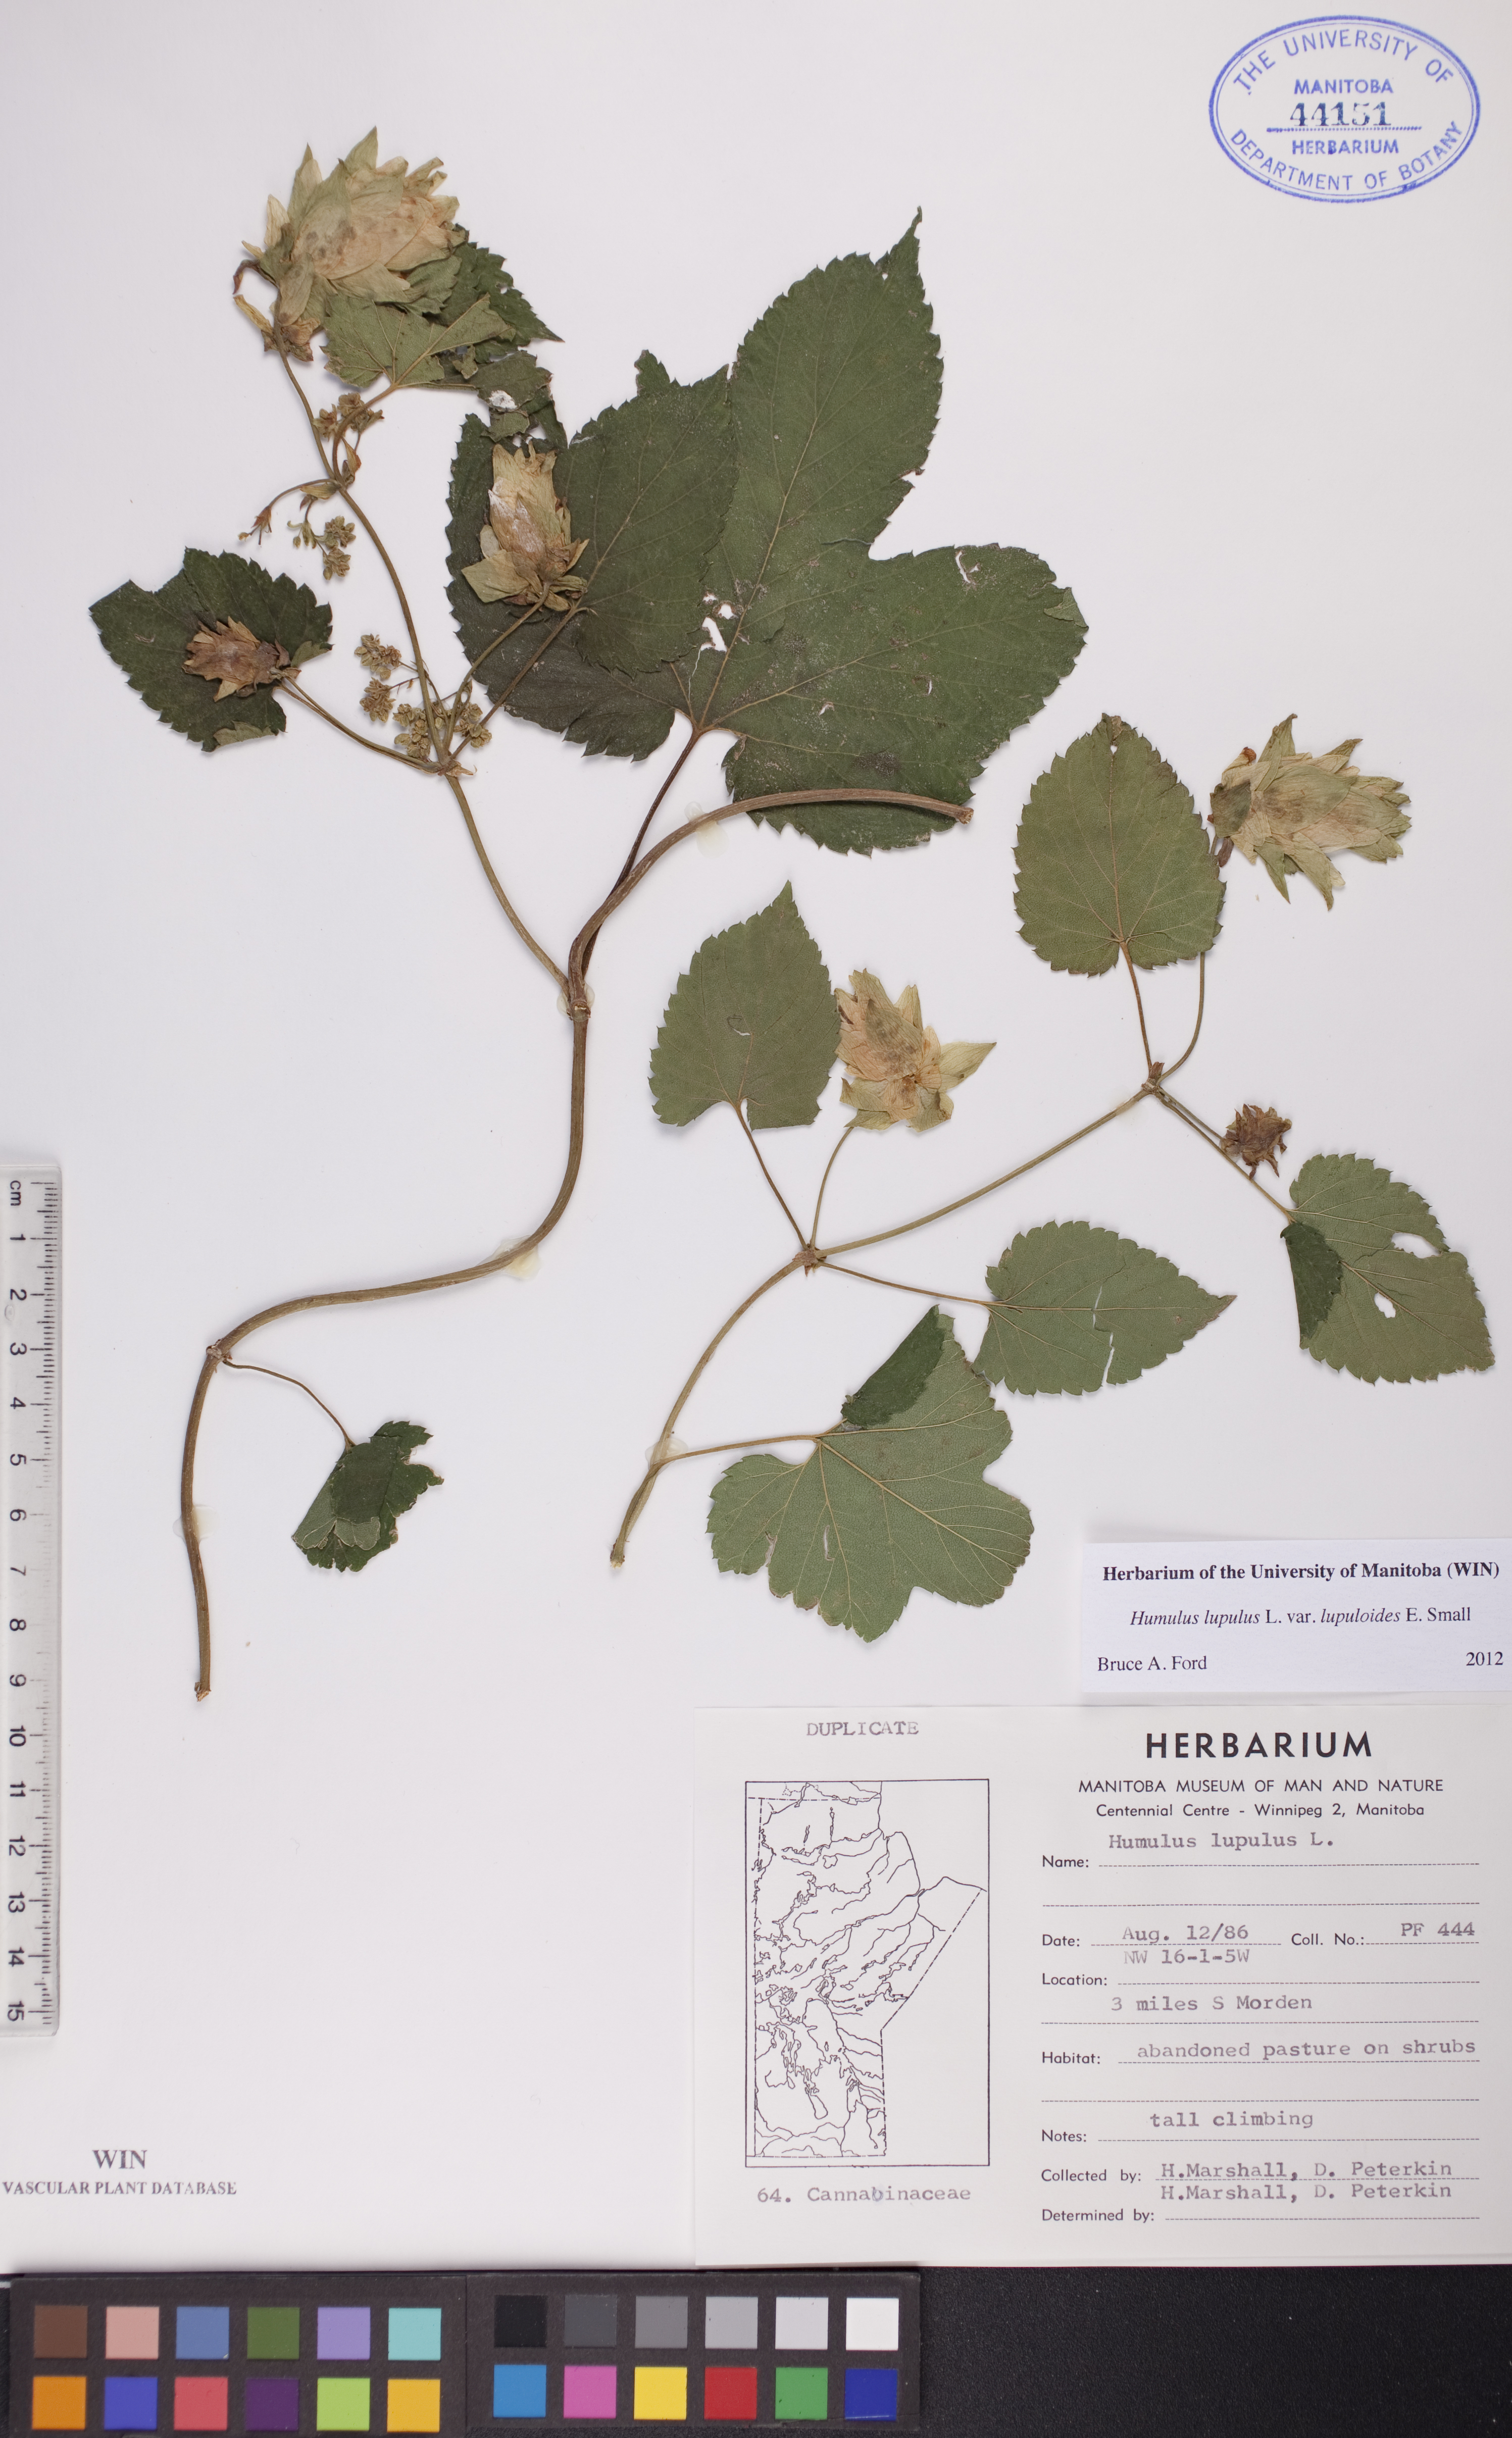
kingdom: Plantae
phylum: Tracheophyta
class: Magnoliopsida
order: Rosales
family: Cannabaceae
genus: Humulus
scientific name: Humulus americanus
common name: American hops
